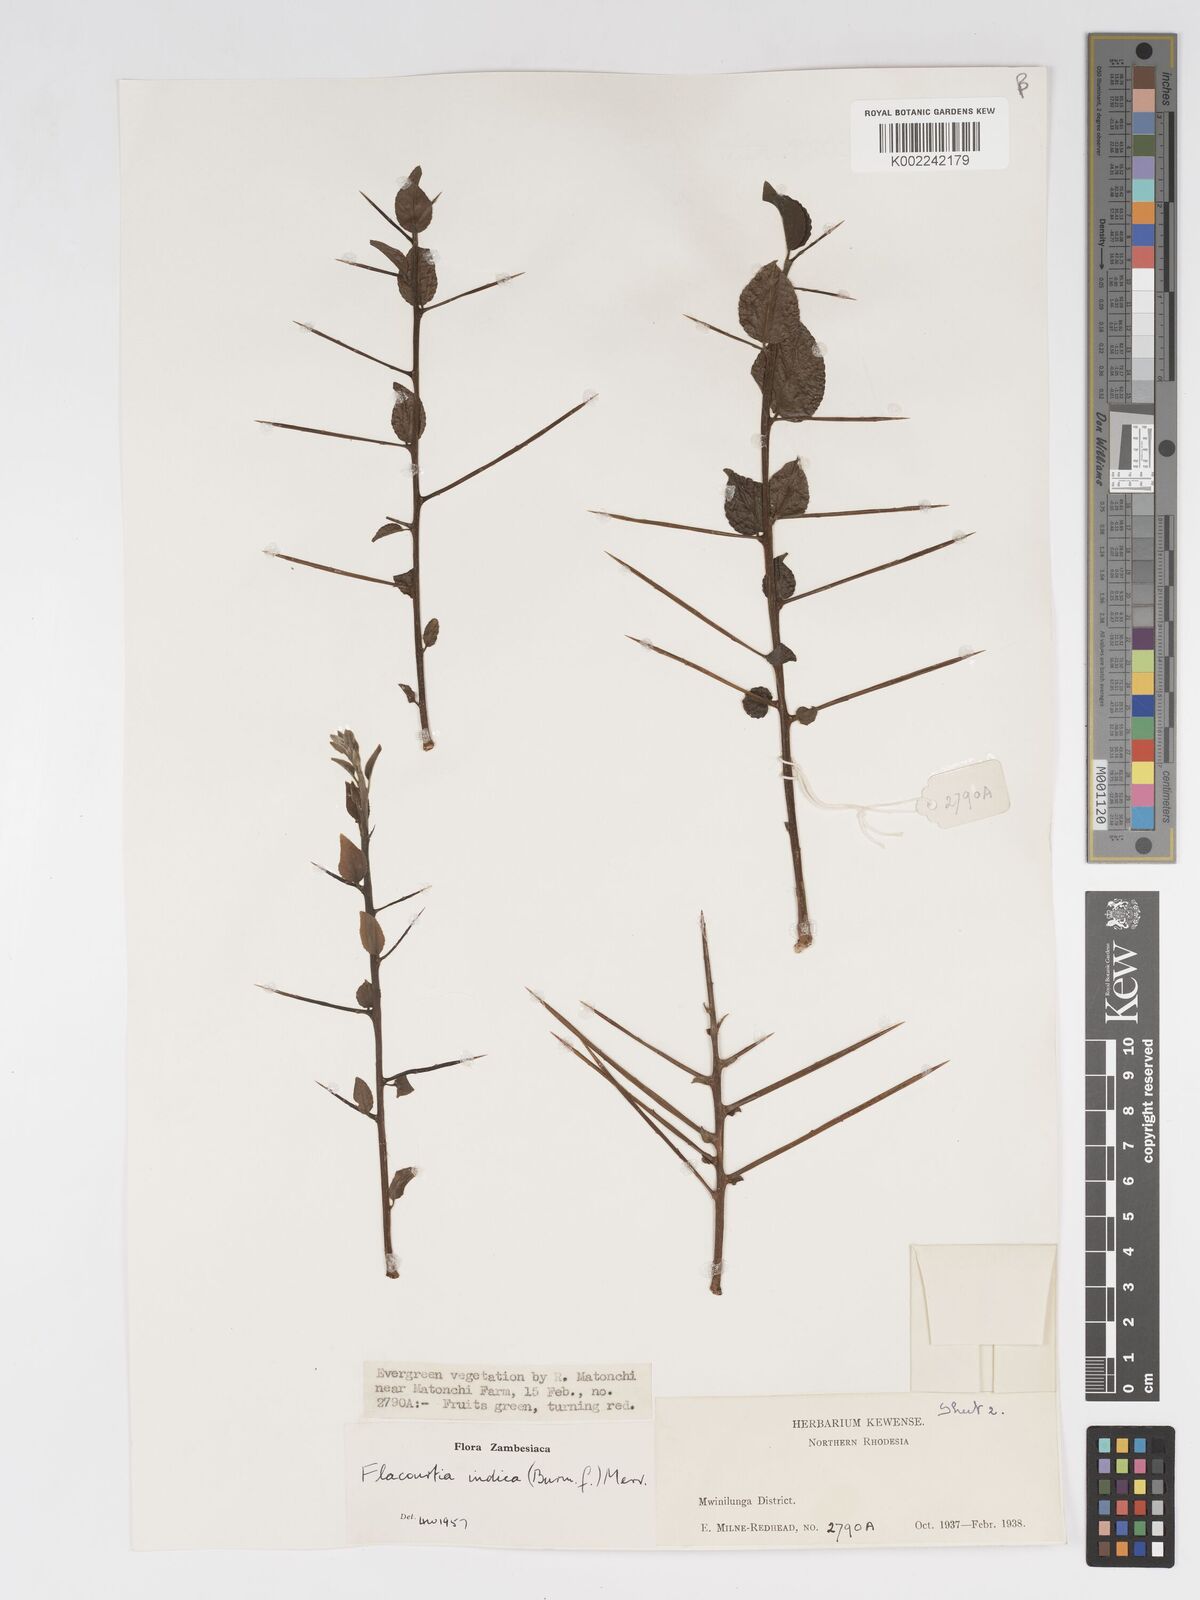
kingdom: Plantae
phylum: Tracheophyta
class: Magnoliopsida
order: Malpighiales
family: Salicaceae
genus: Flacourtia
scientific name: Flacourtia indica
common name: Governor's plum
